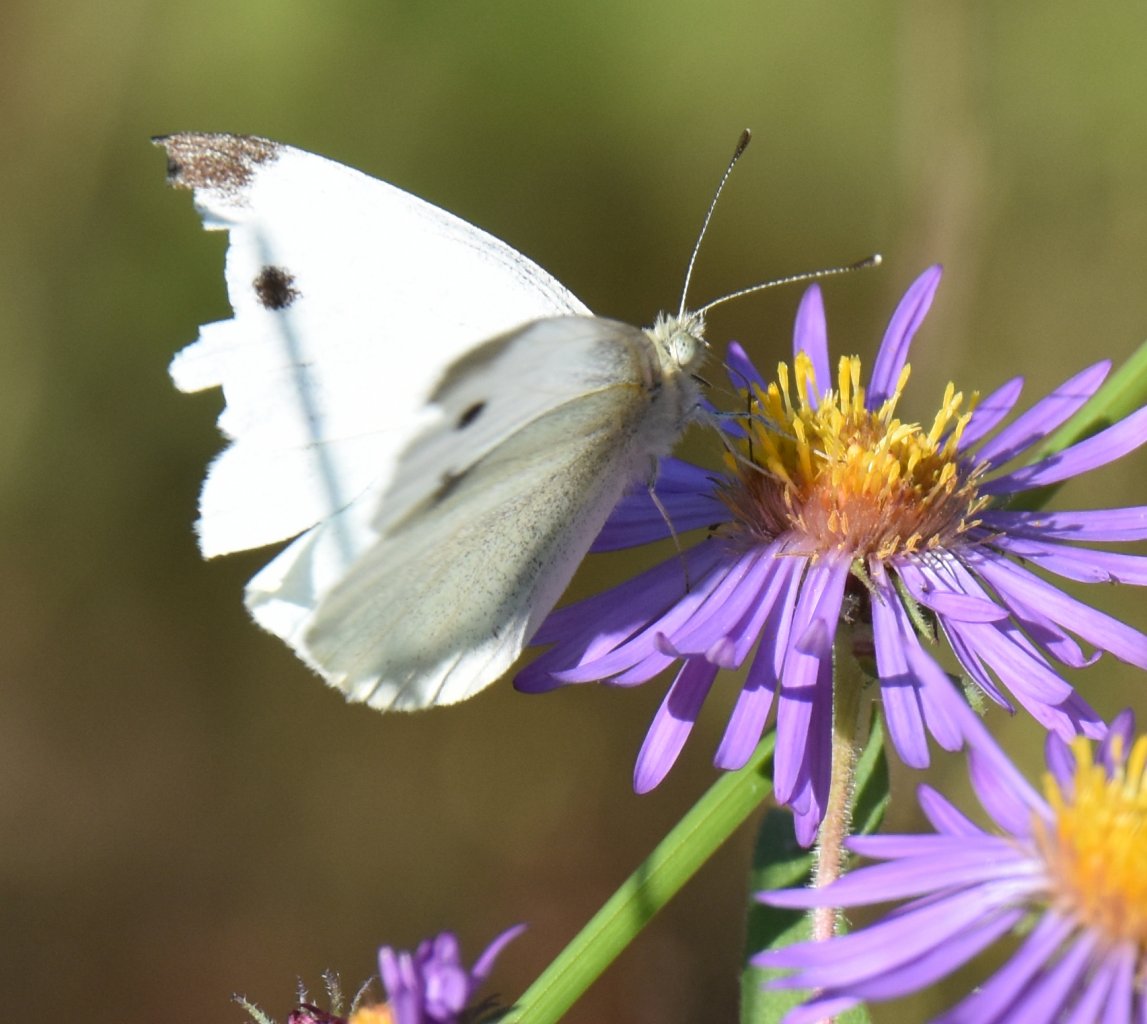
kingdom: Animalia
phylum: Arthropoda
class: Insecta
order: Lepidoptera
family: Pieridae
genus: Pieris
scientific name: Pieris rapae
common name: Cabbage White
